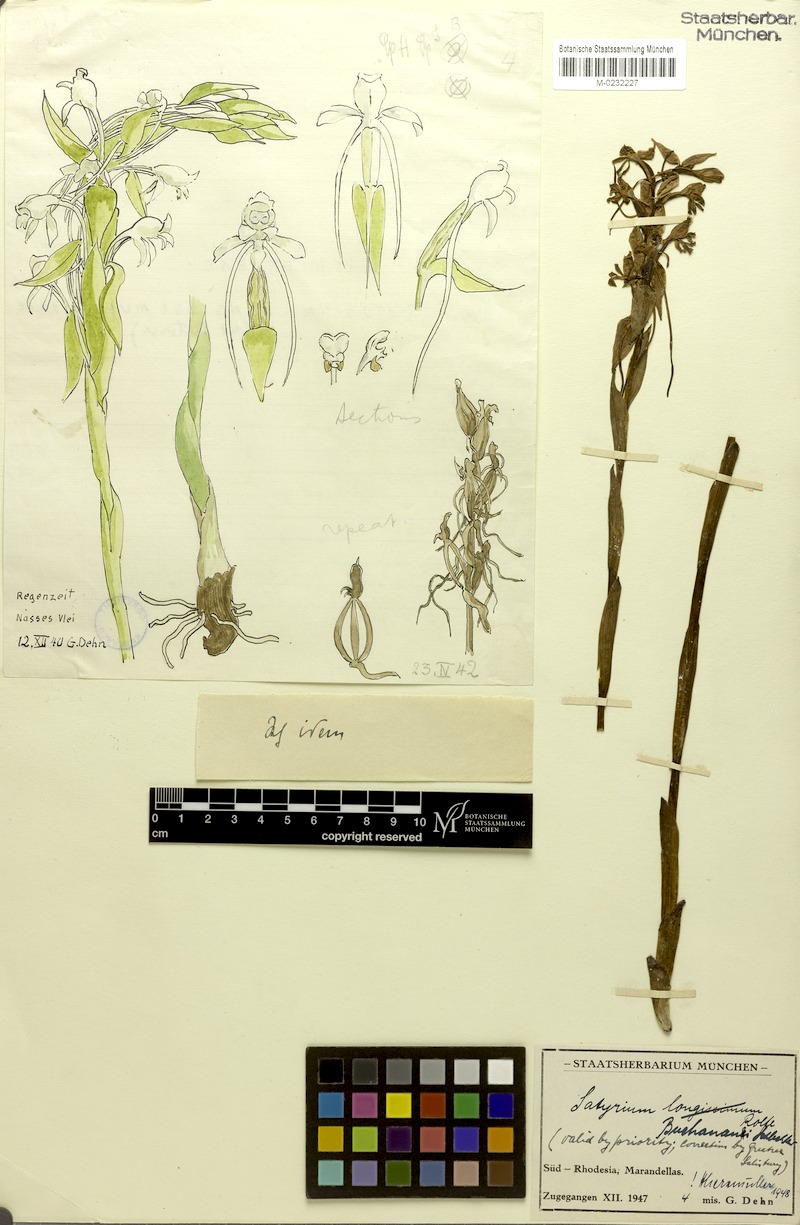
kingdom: Plantae
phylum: Tracheophyta
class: Liliopsida
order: Asparagales
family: Orchidaceae
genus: Satyrium
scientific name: Satyrium buchananii
